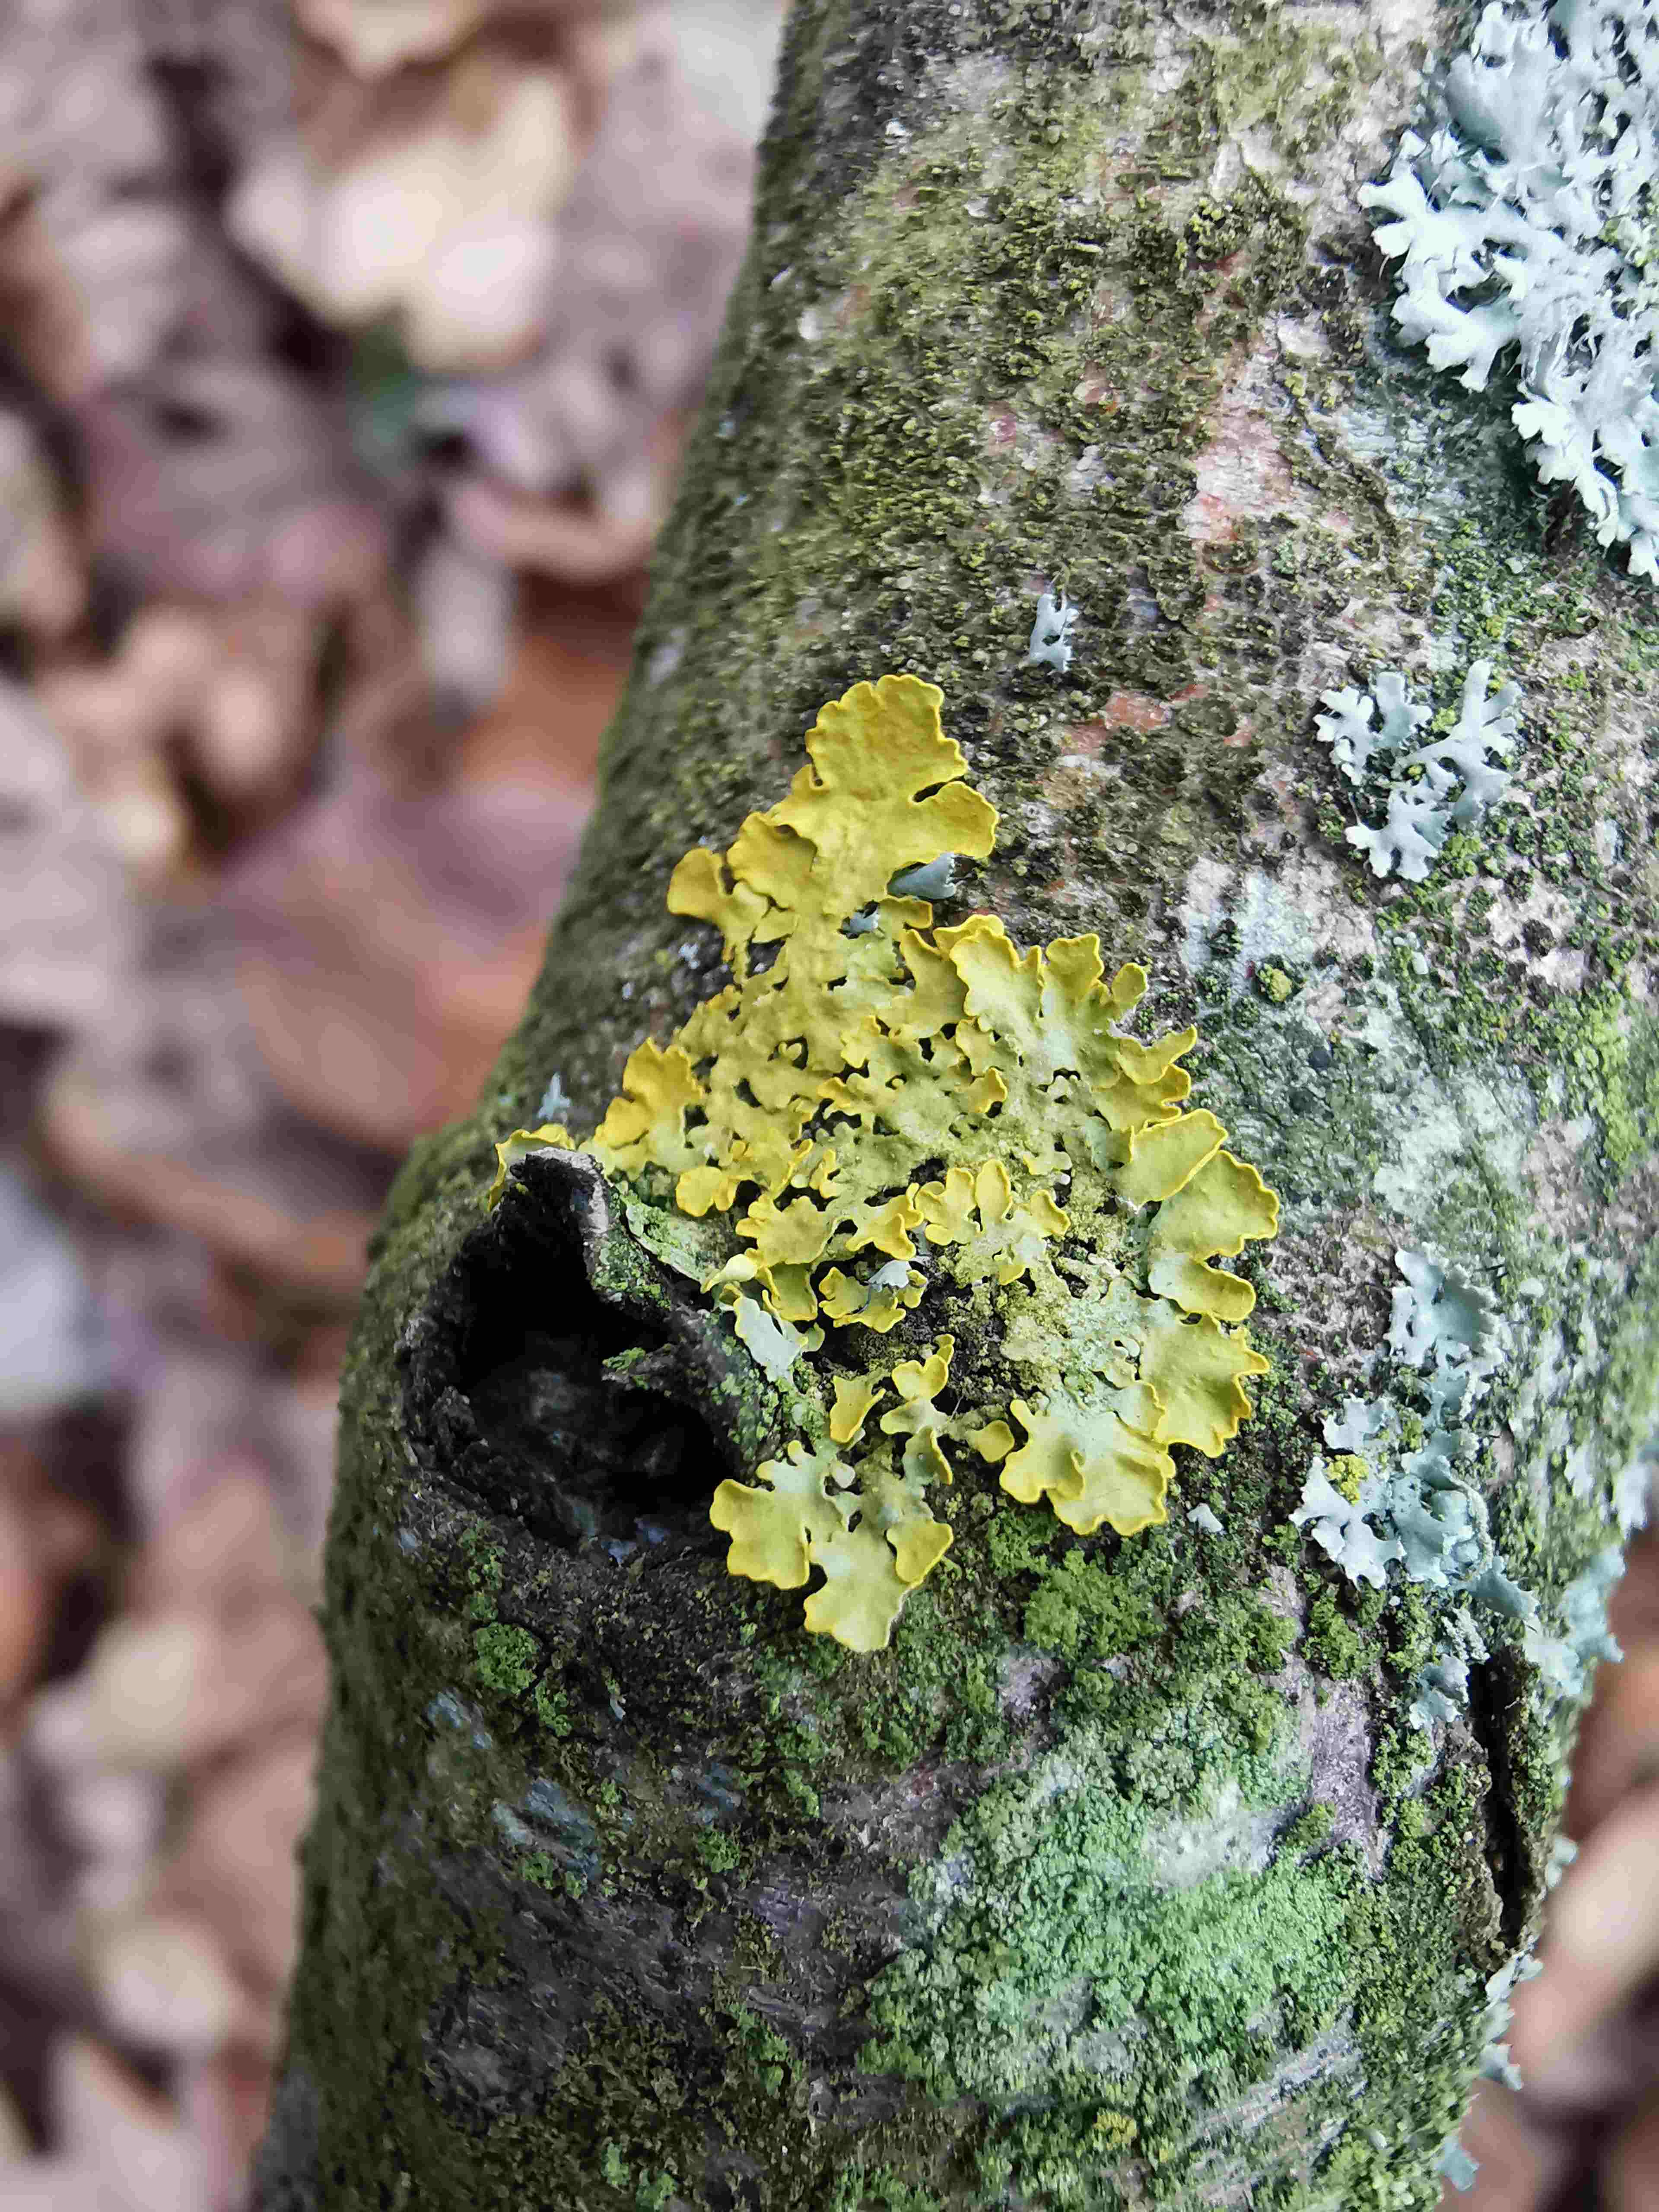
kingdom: Fungi
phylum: Ascomycota
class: Lecanoromycetes
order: Teloschistales
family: Teloschistaceae
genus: Xanthoria
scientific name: Xanthoria parietina
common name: almindelig væggelav
